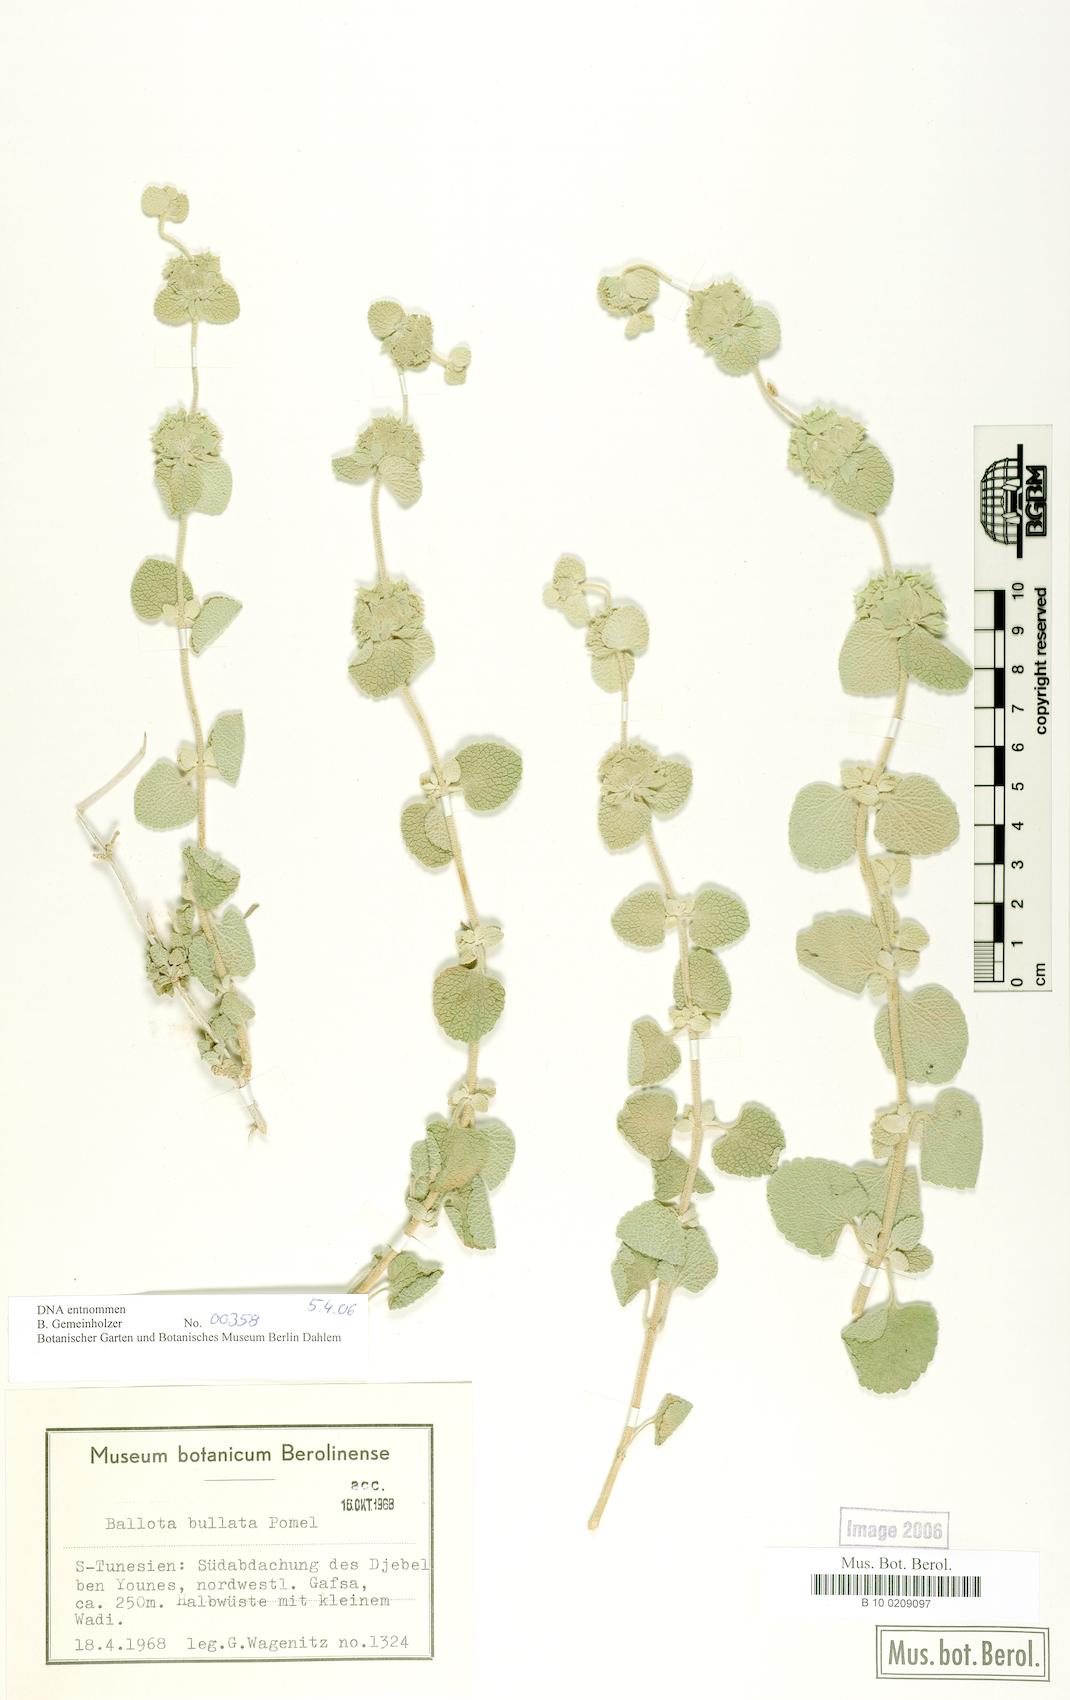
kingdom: Plantae
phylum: Tracheophyta
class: Magnoliopsida
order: Lamiales
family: Lamiaceae
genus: Pseudodictamnus
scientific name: Pseudodictamnus bullatus
